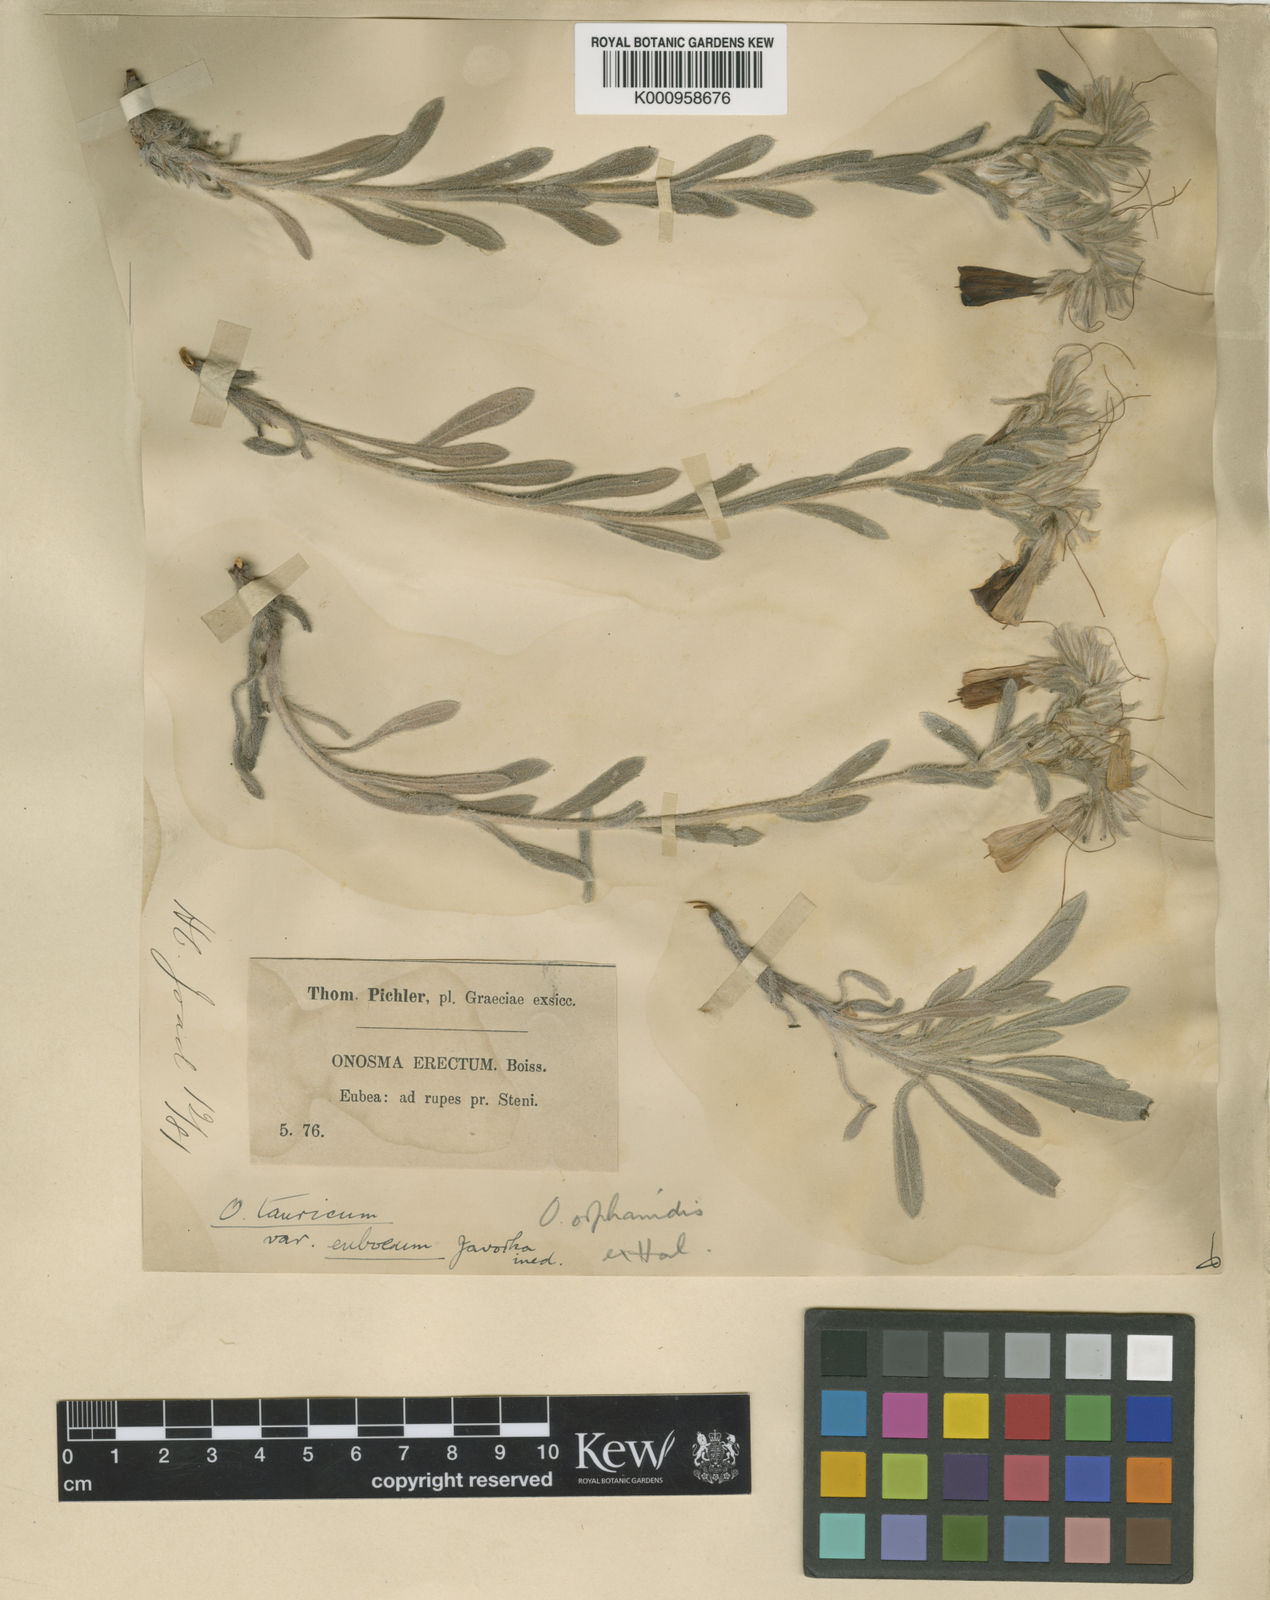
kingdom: Plantae
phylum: Tracheophyta
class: Magnoliopsida
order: Boraginales
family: Boraginaceae
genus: Onosma
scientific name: Onosma cinerea
